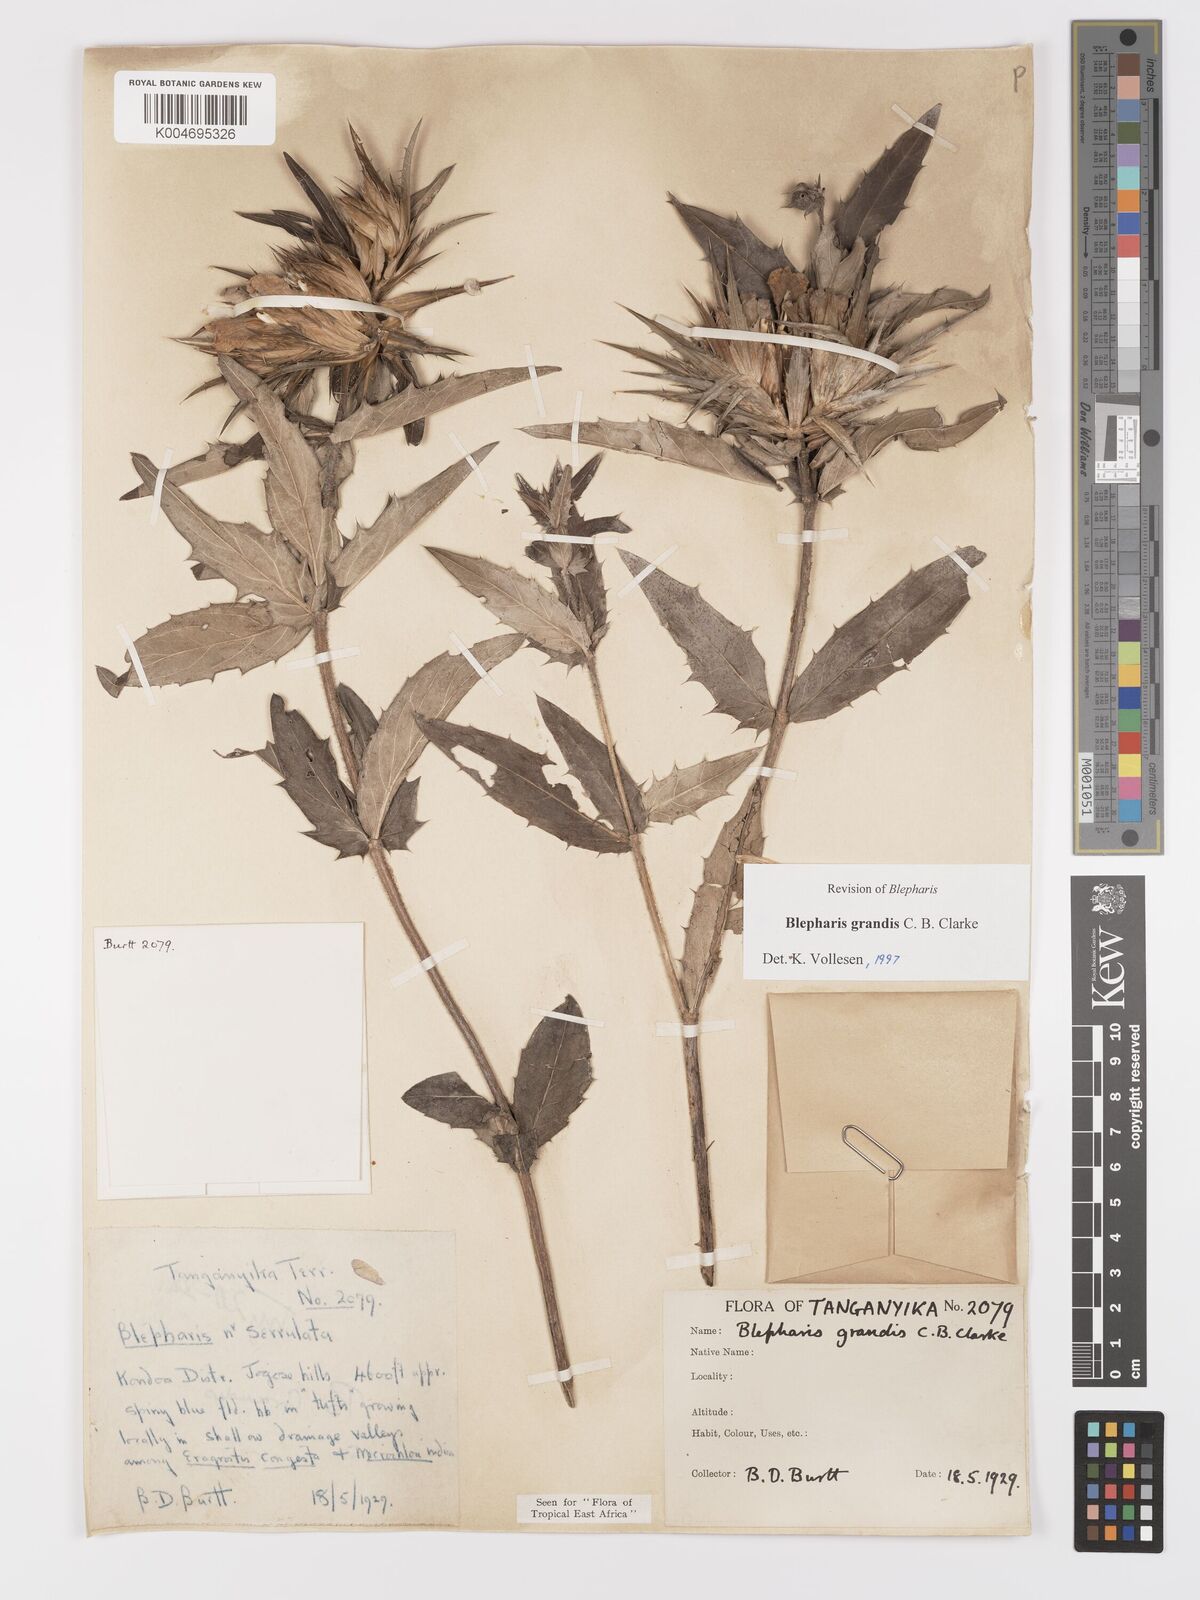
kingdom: Plantae
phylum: Tracheophyta
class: Magnoliopsida
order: Lamiales
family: Acanthaceae
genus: Blepharis
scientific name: Blepharis grandis
